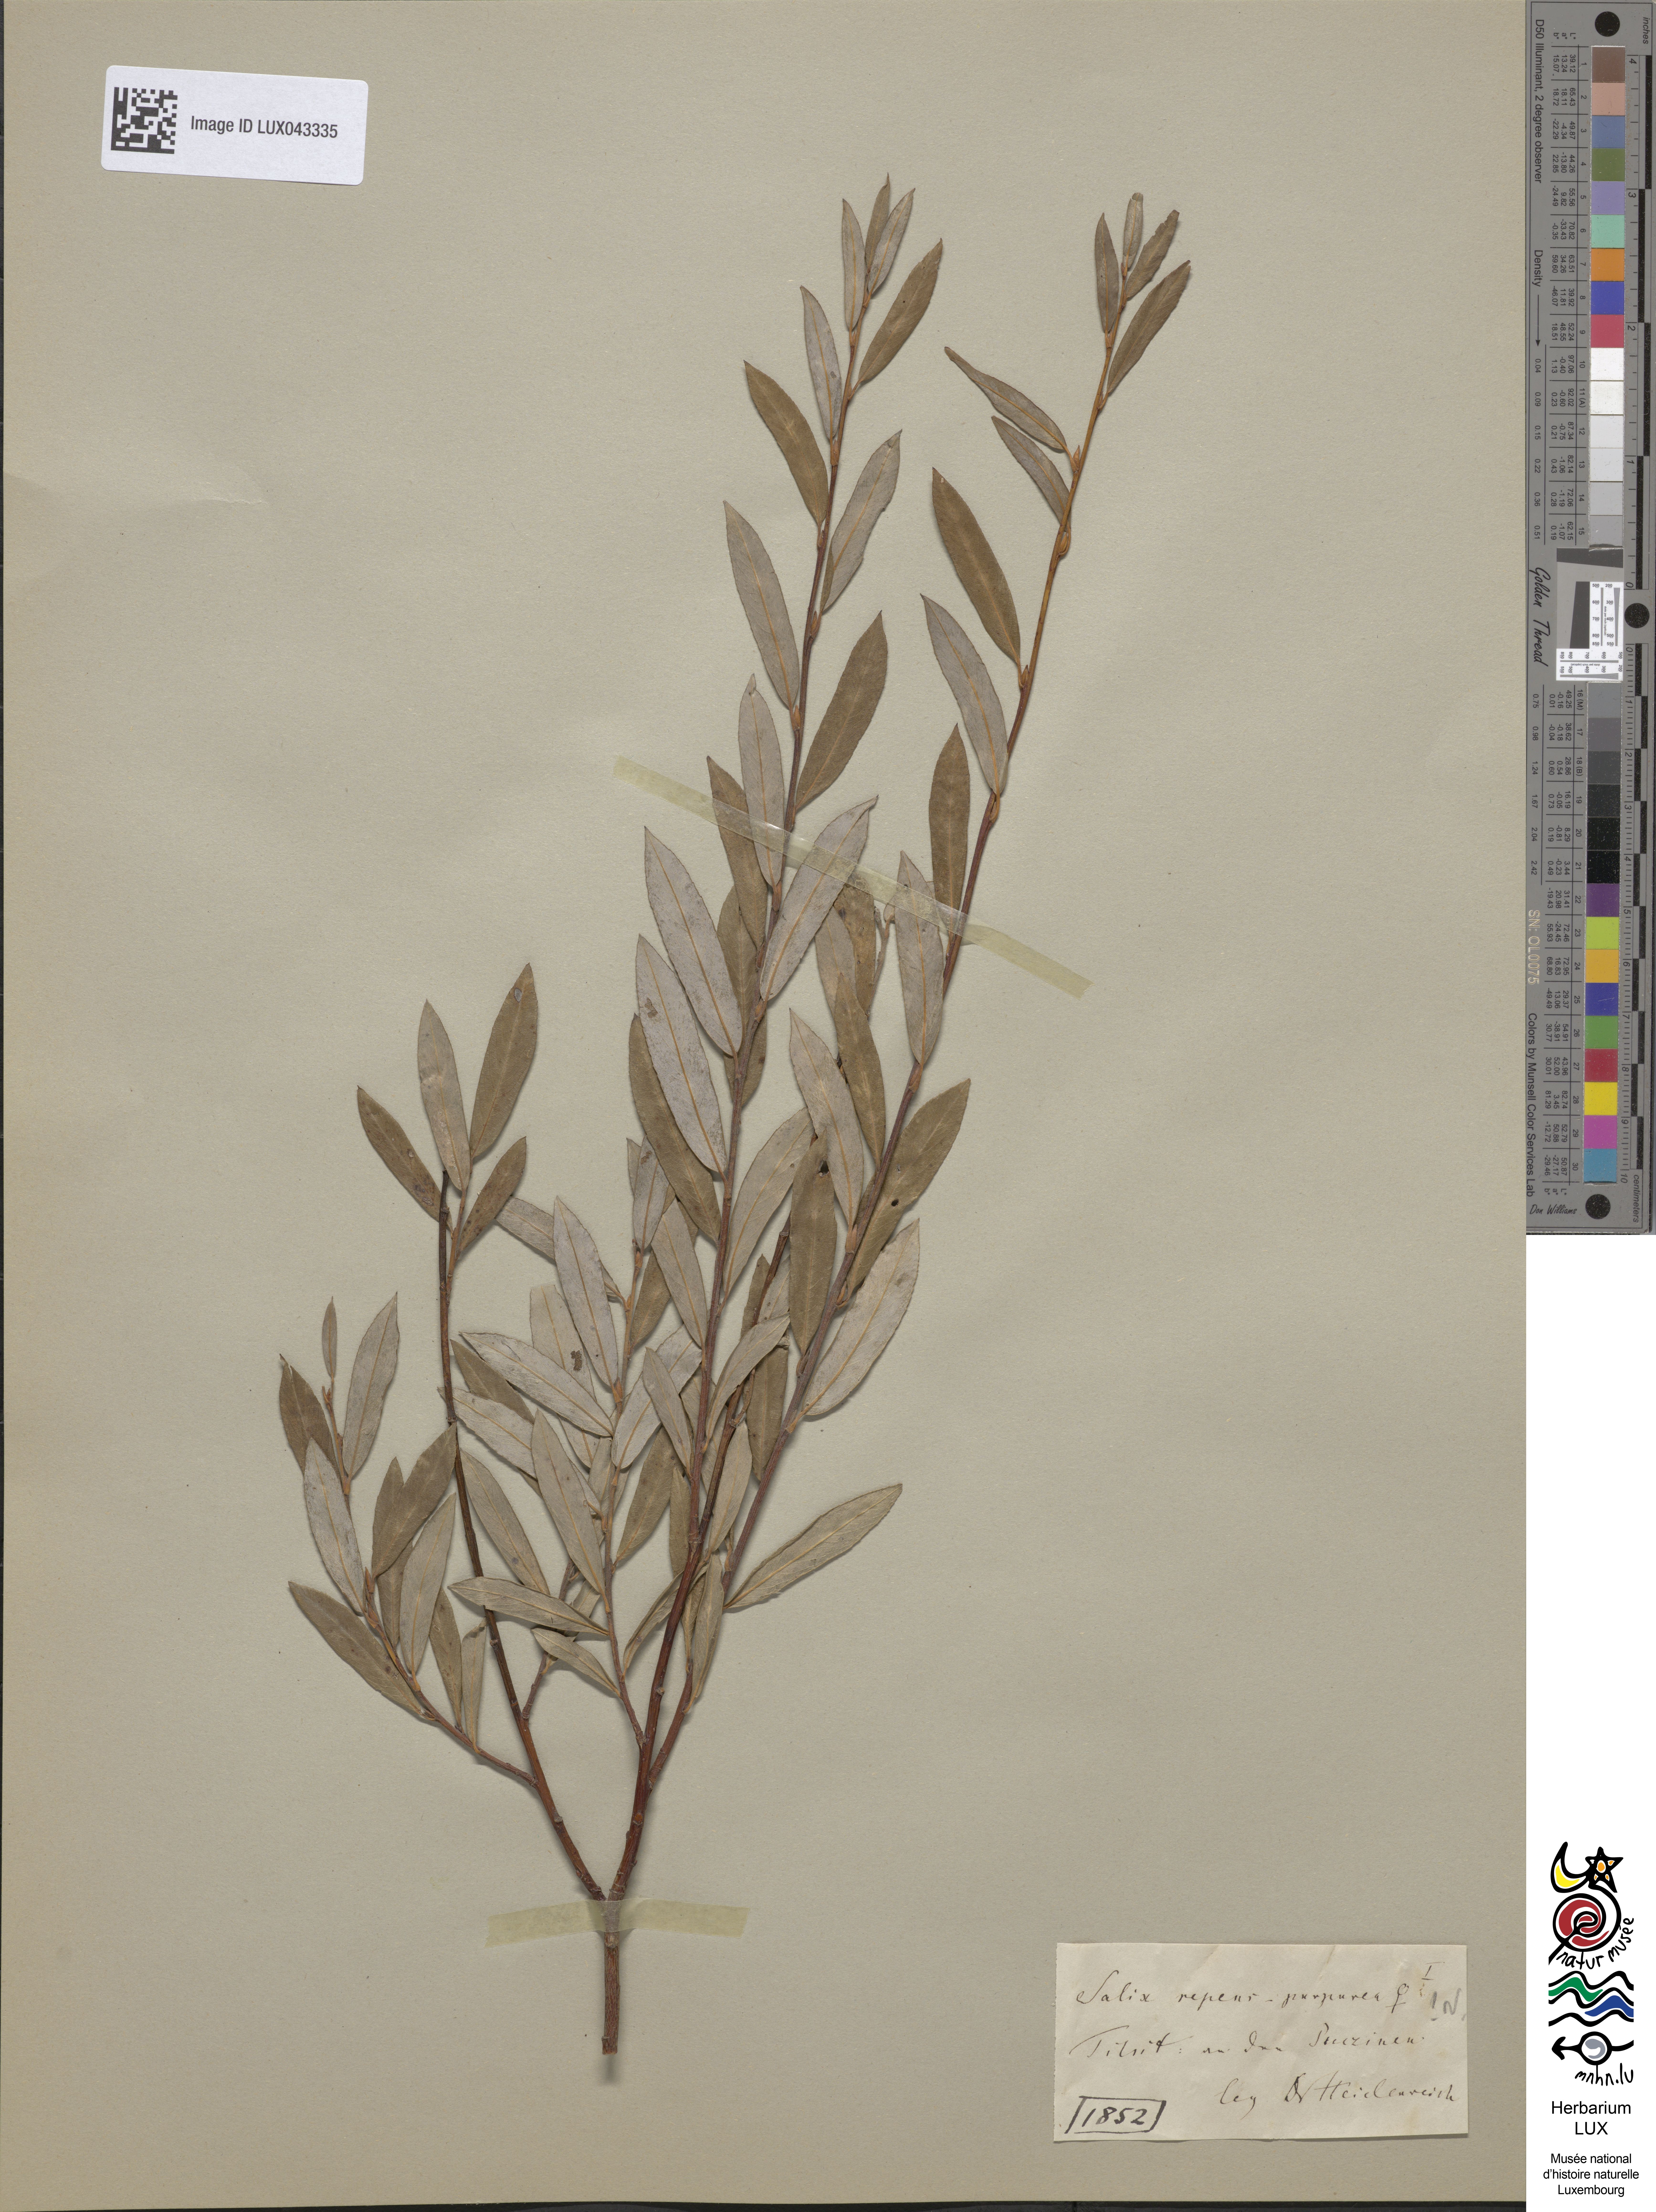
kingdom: Plantae
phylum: Tracheophyta
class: Magnoliopsida
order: Malpighiales
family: Salicaceae
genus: Salix
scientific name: Salix
